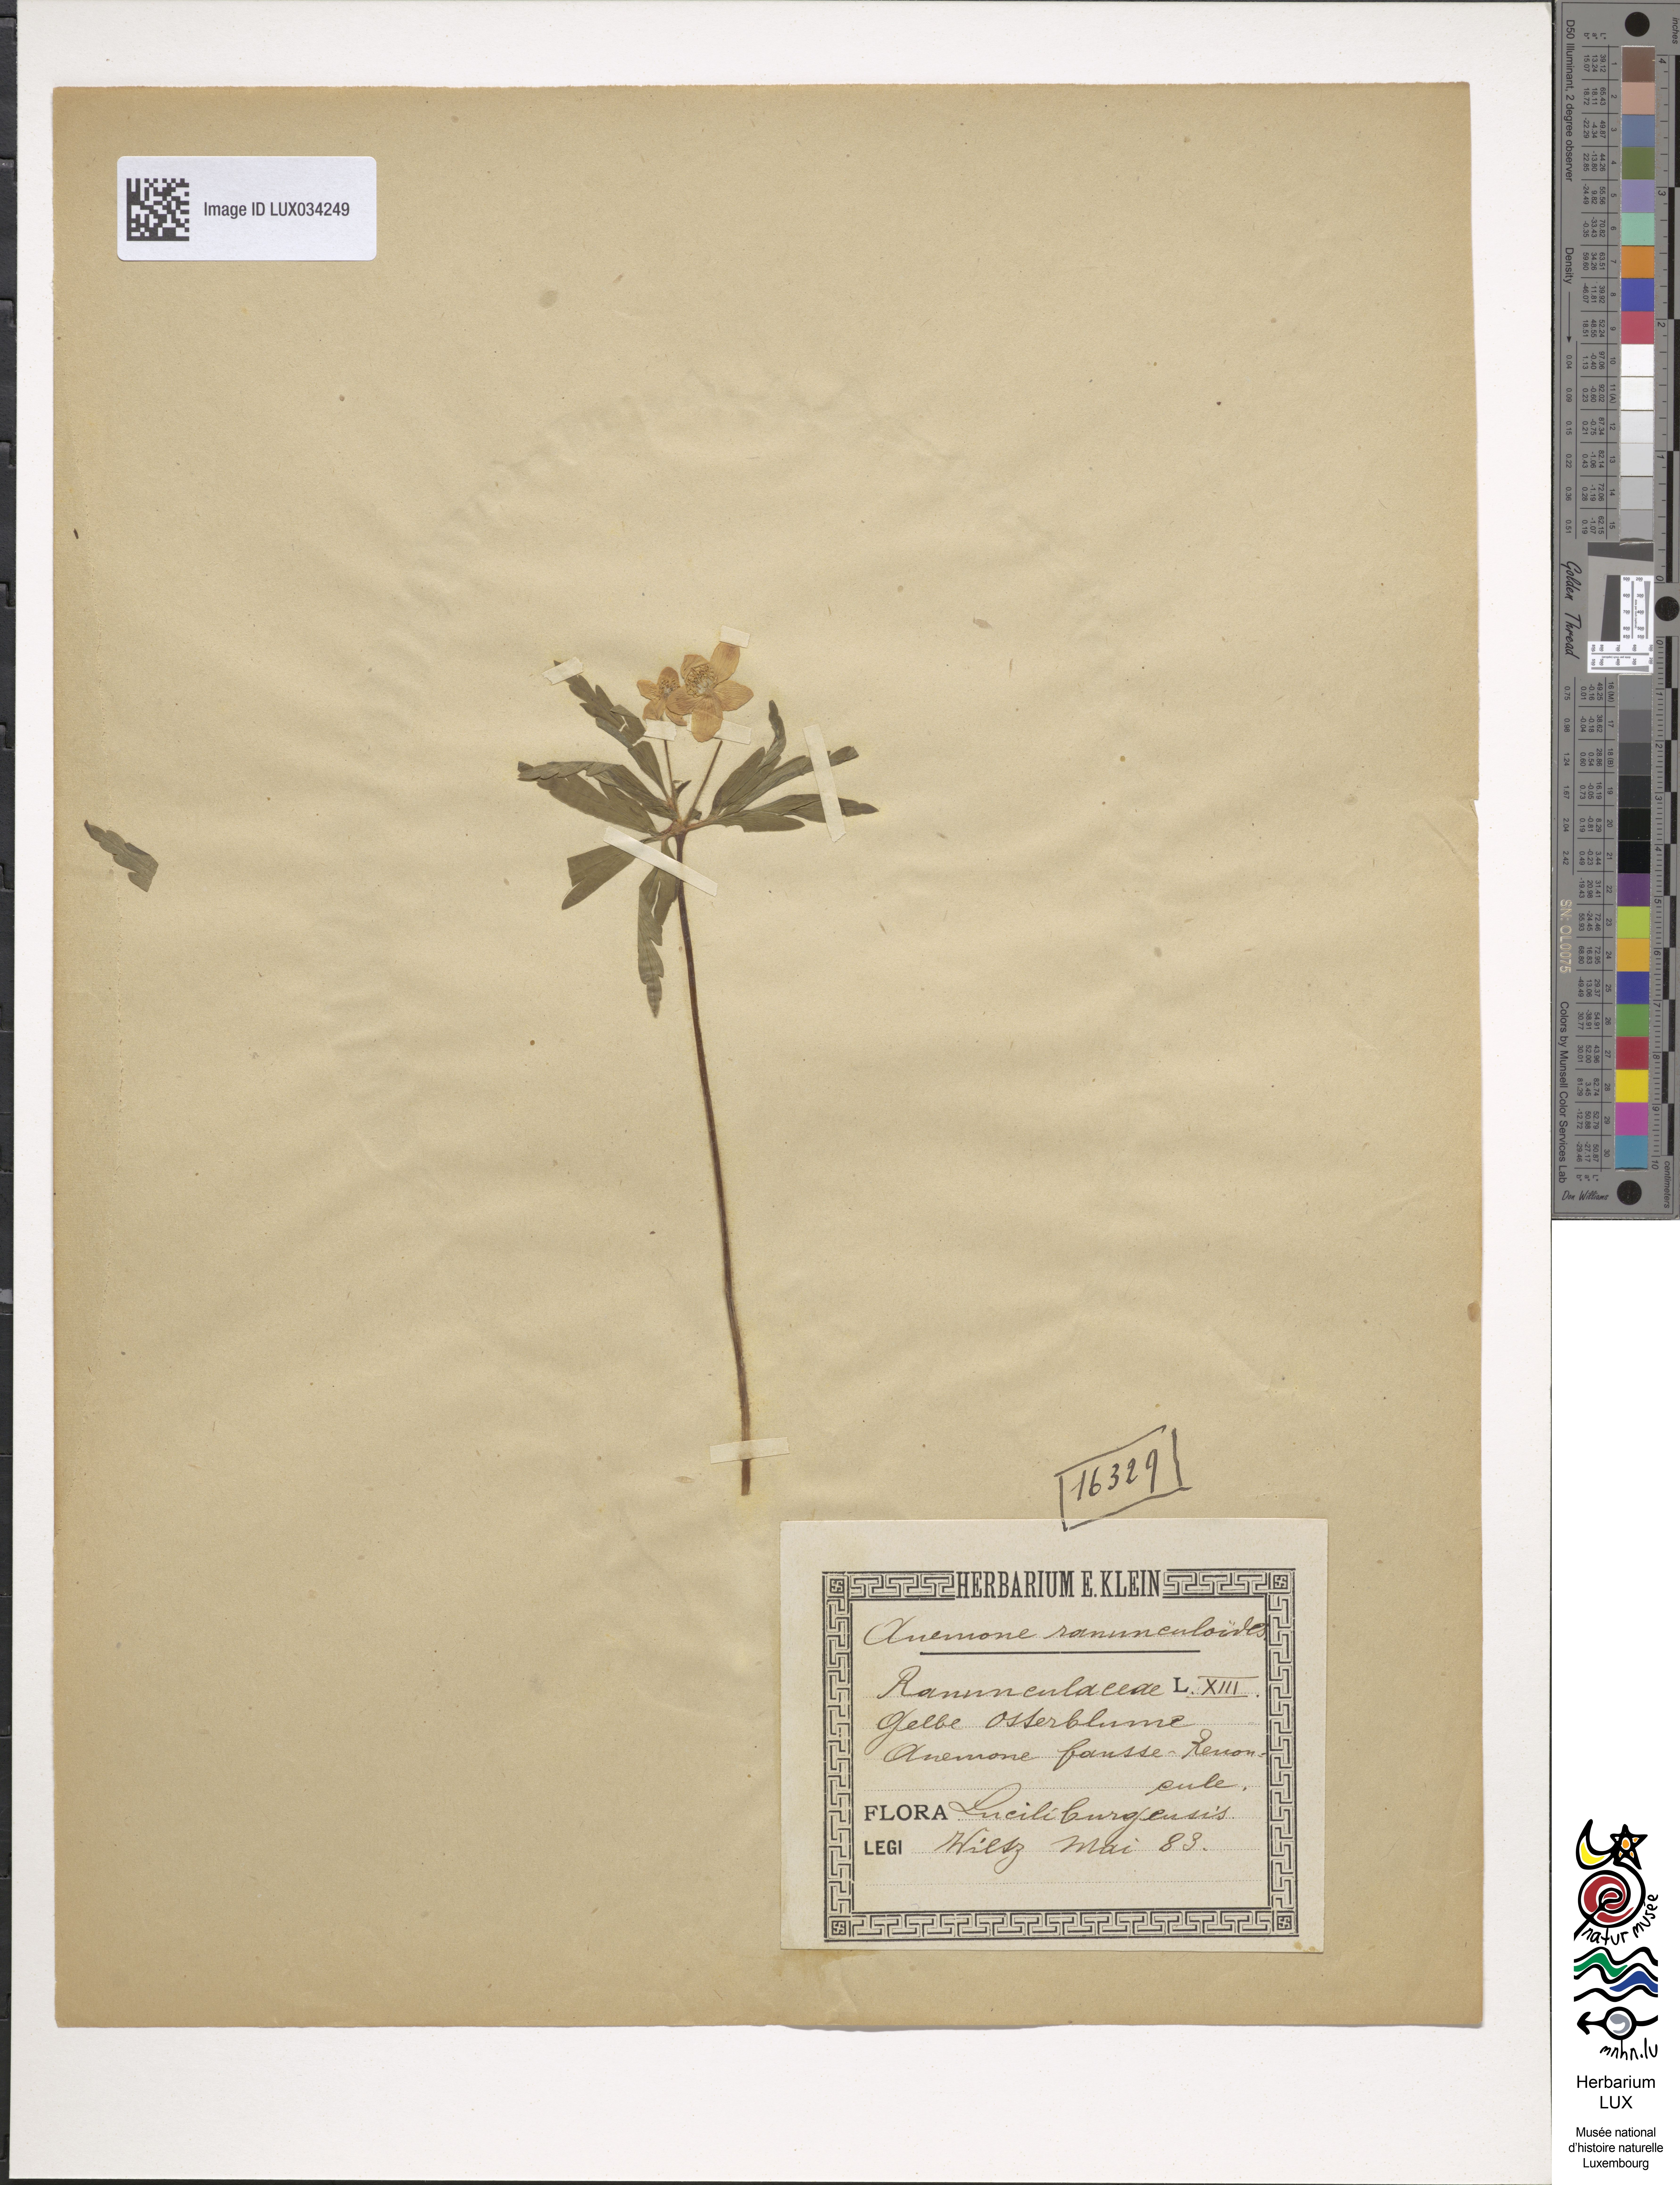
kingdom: Plantae
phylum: Tracheophyta
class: Magnoliopsida
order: Ranunculales
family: Ranunculaceae
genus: Anemone
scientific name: Anemone ranunculoides
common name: Yellow anemone
